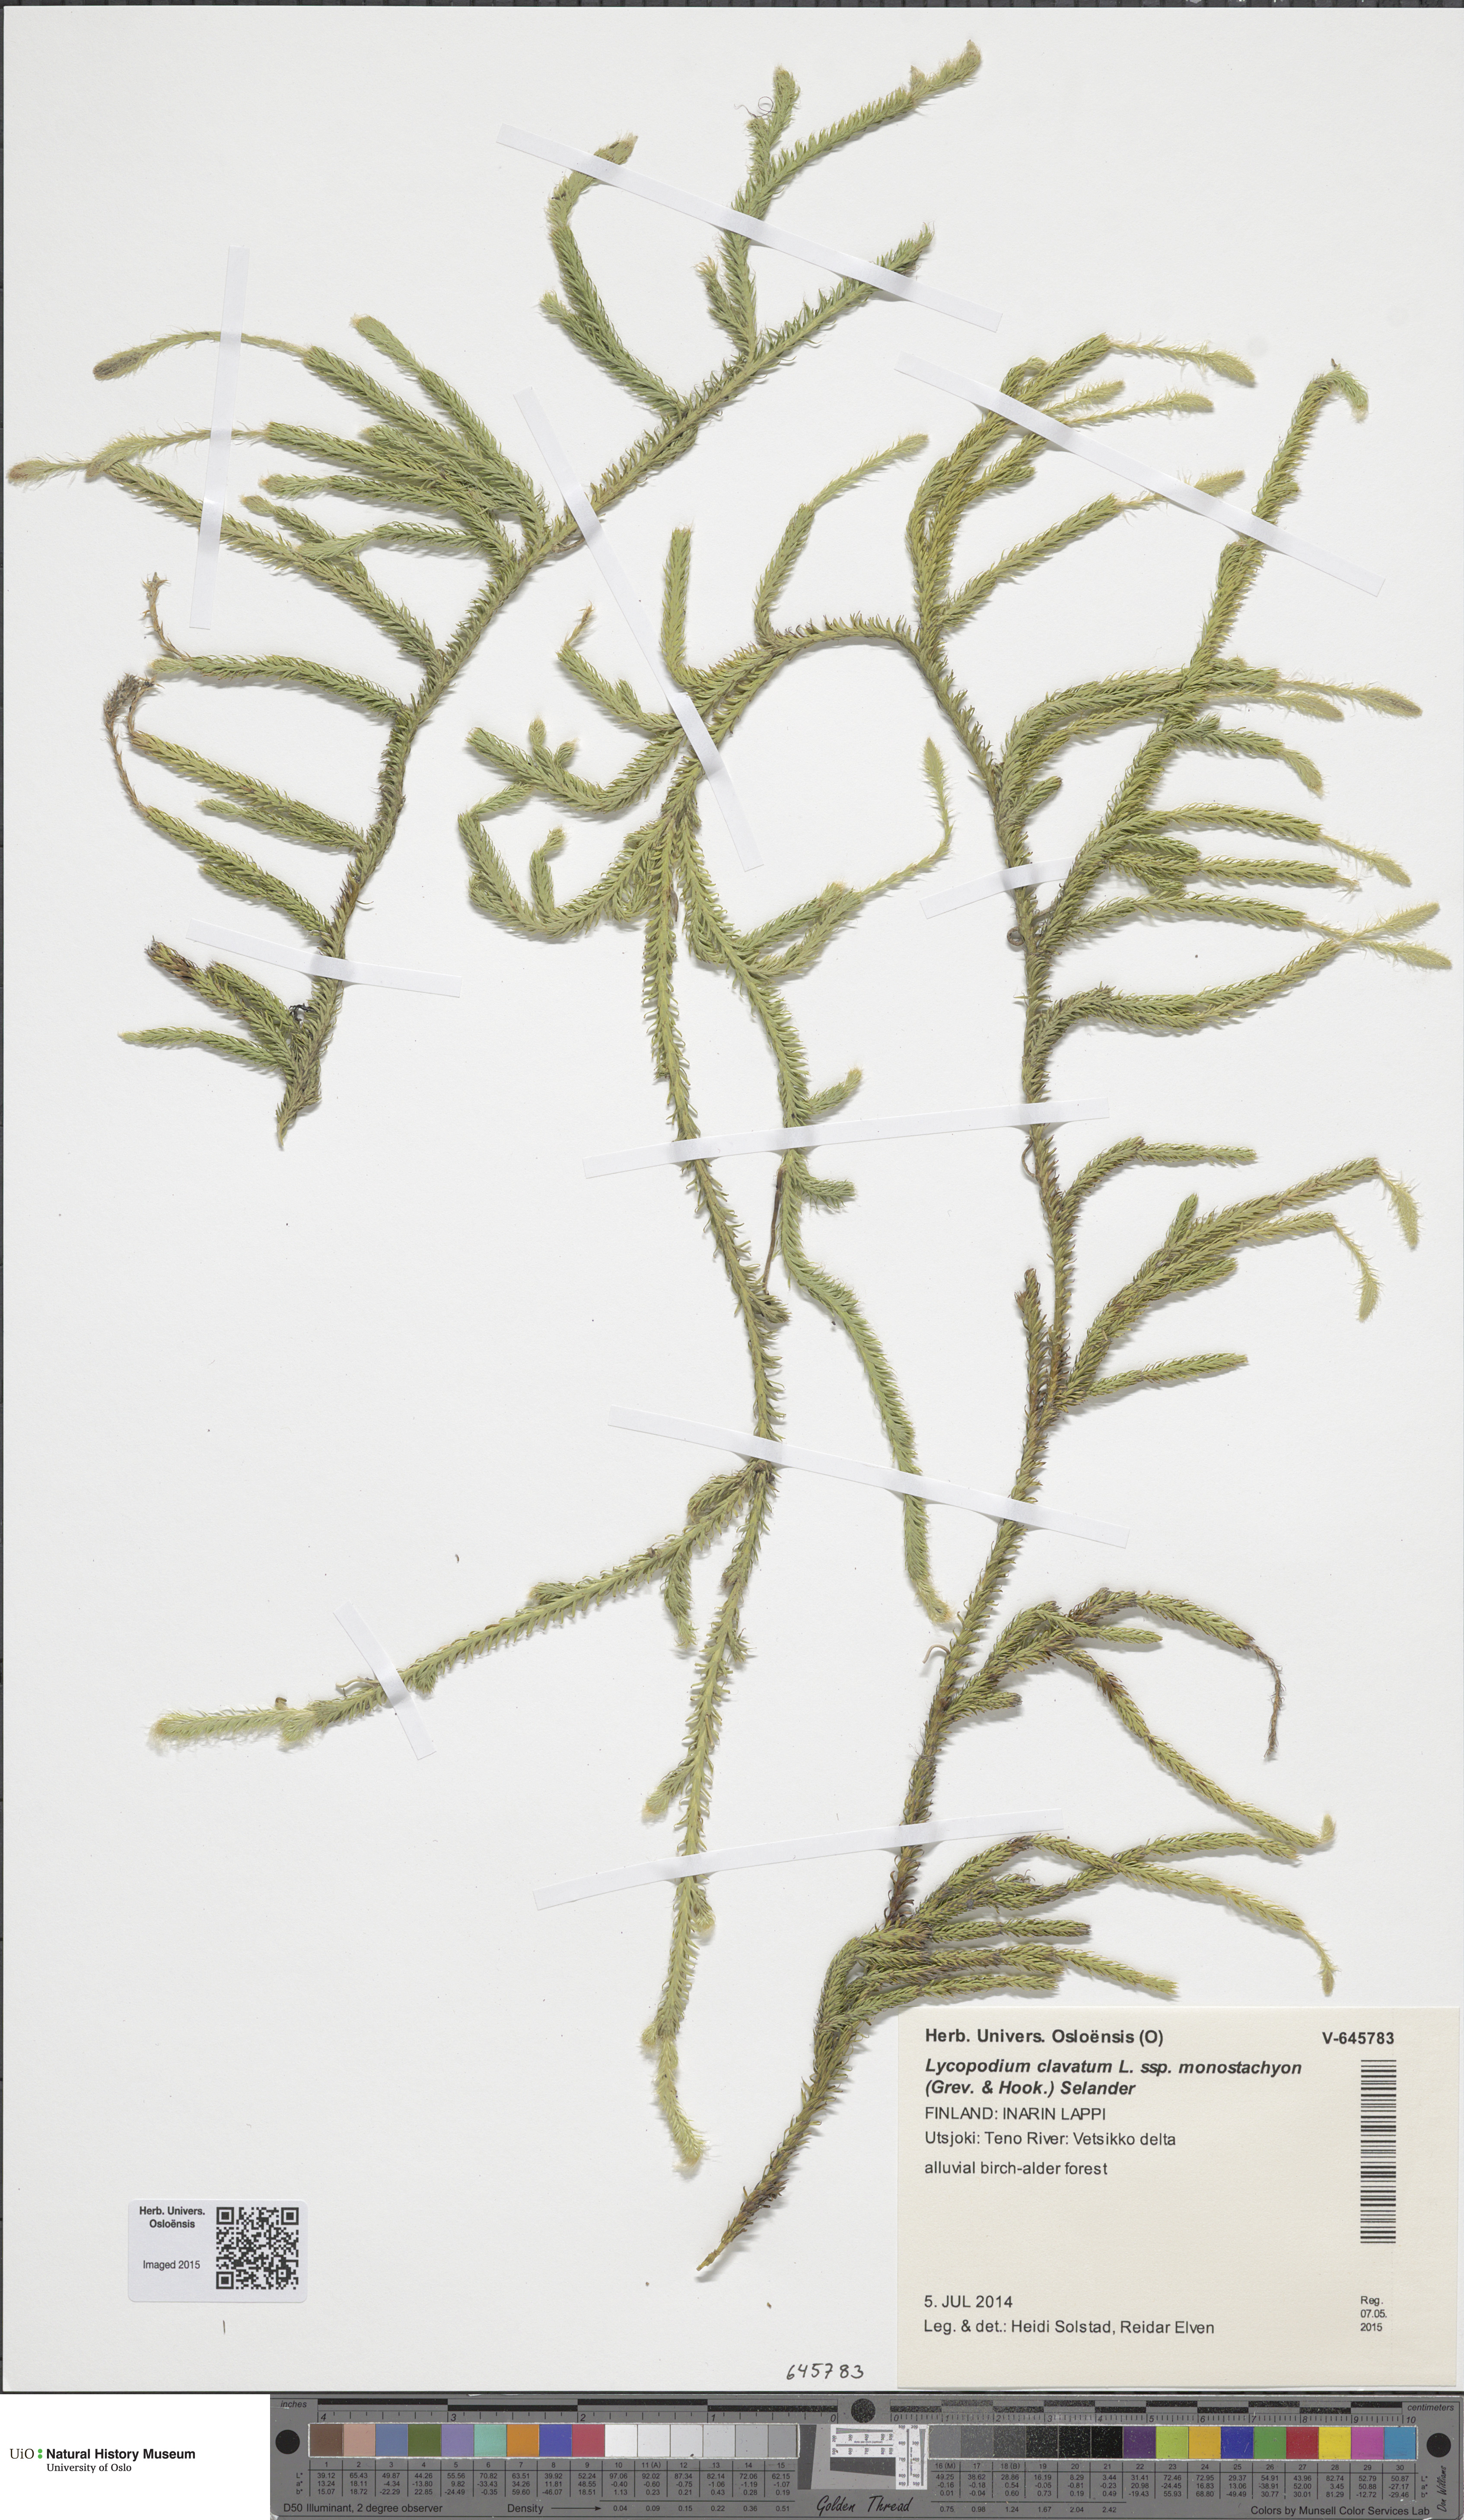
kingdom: Plantae
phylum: Tracheophyta
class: Lycopodiopsida
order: Lycopodiales
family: Lycopodiaceae
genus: Lycopodium
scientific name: Lycopodium lagopus
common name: One-cone clubmoss
